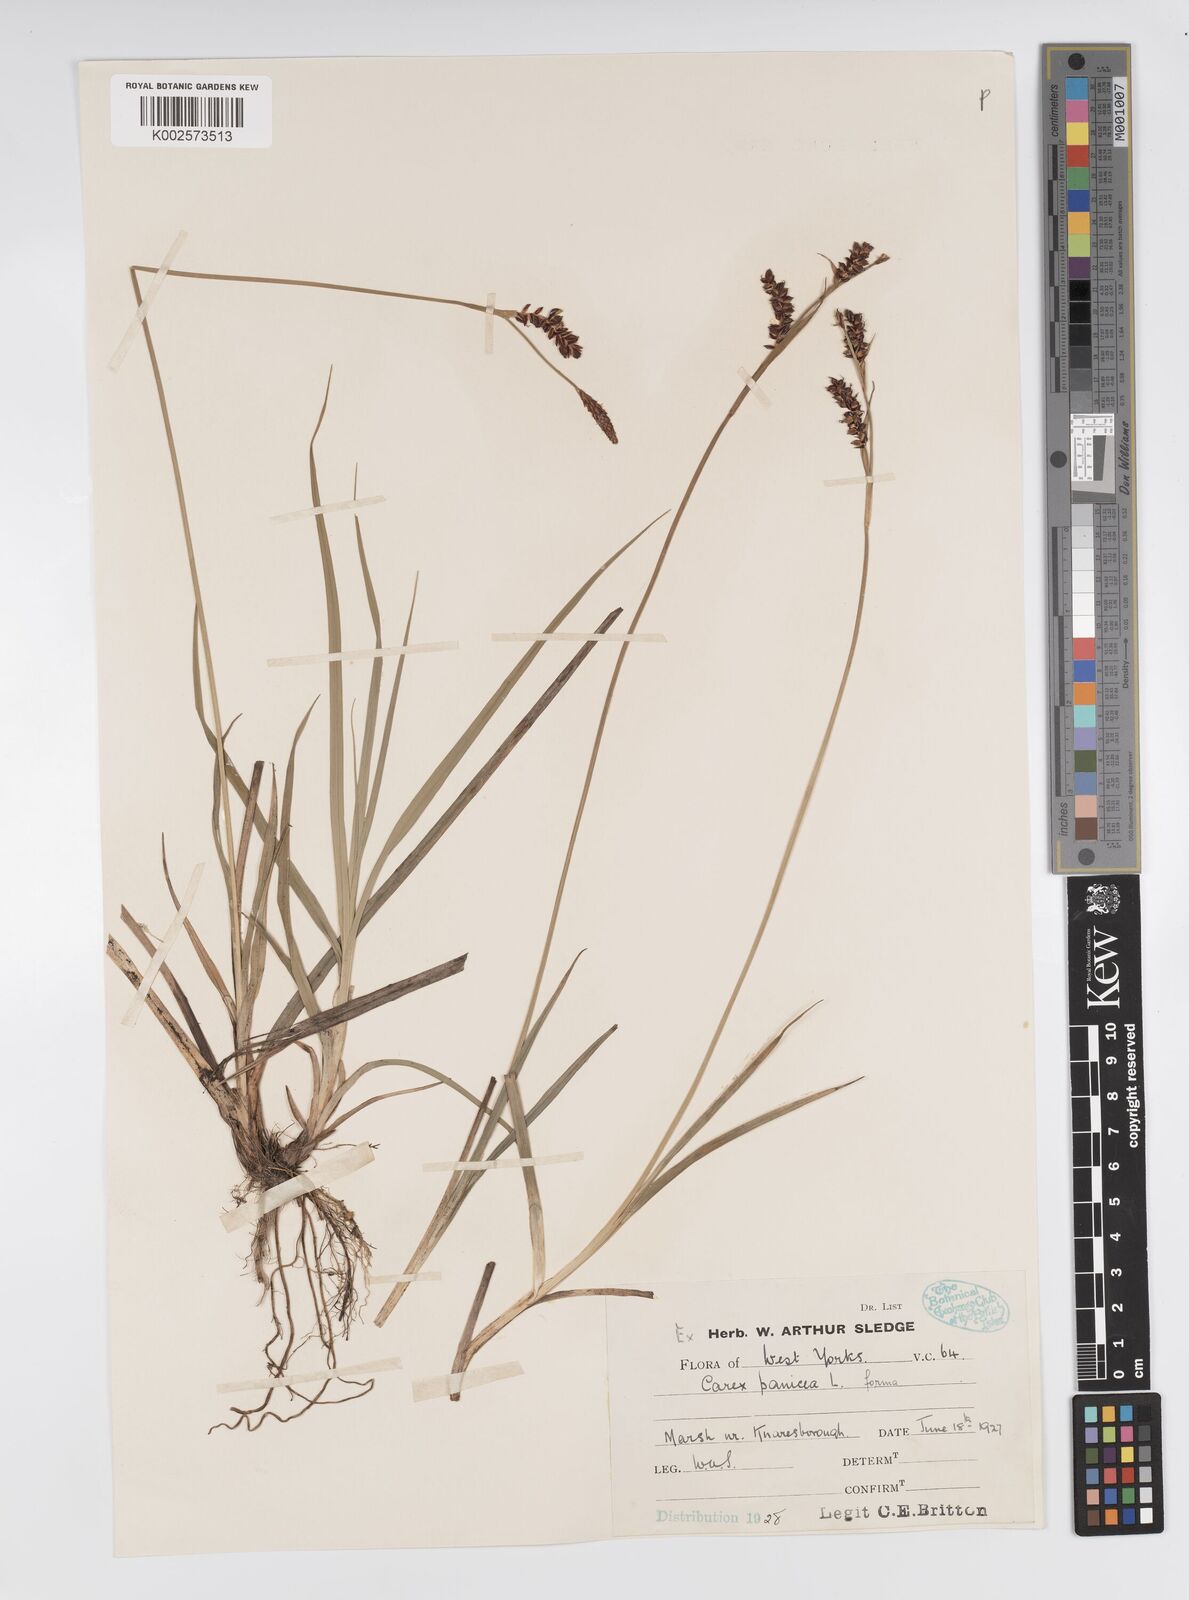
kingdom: Plantae
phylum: Tracheophyta
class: Liliopsida
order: Poales
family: Cyperaceae
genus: Carex
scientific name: Carex panicea
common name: Carnation sedge
